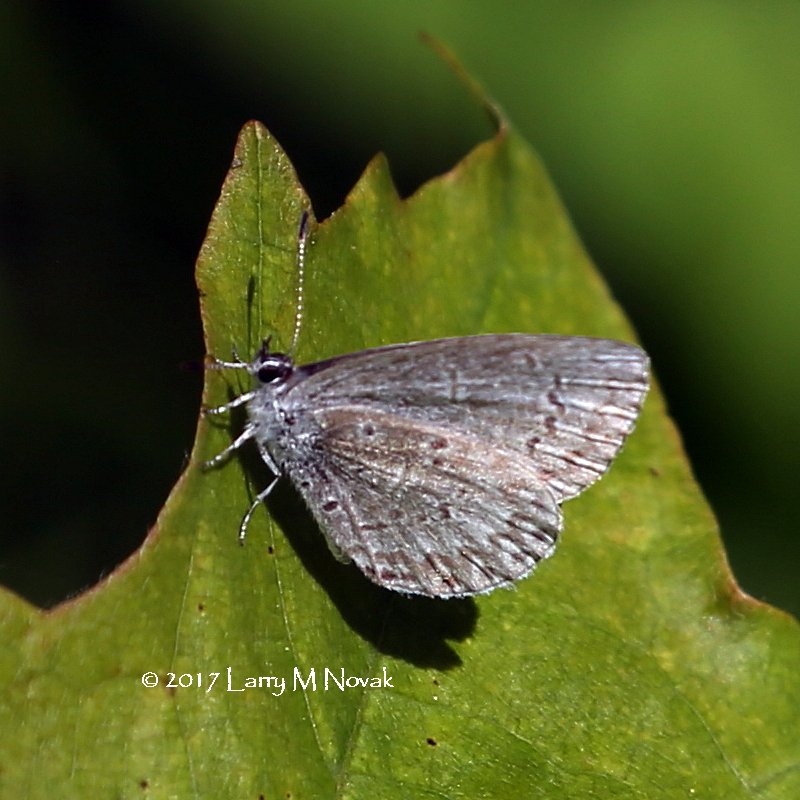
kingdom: Animalia
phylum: Arthropoda
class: Insecta
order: Lepidoptera
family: Lycaenidae
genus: Celastrina
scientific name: Celastrina lucia
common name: Northern Spring Azure
